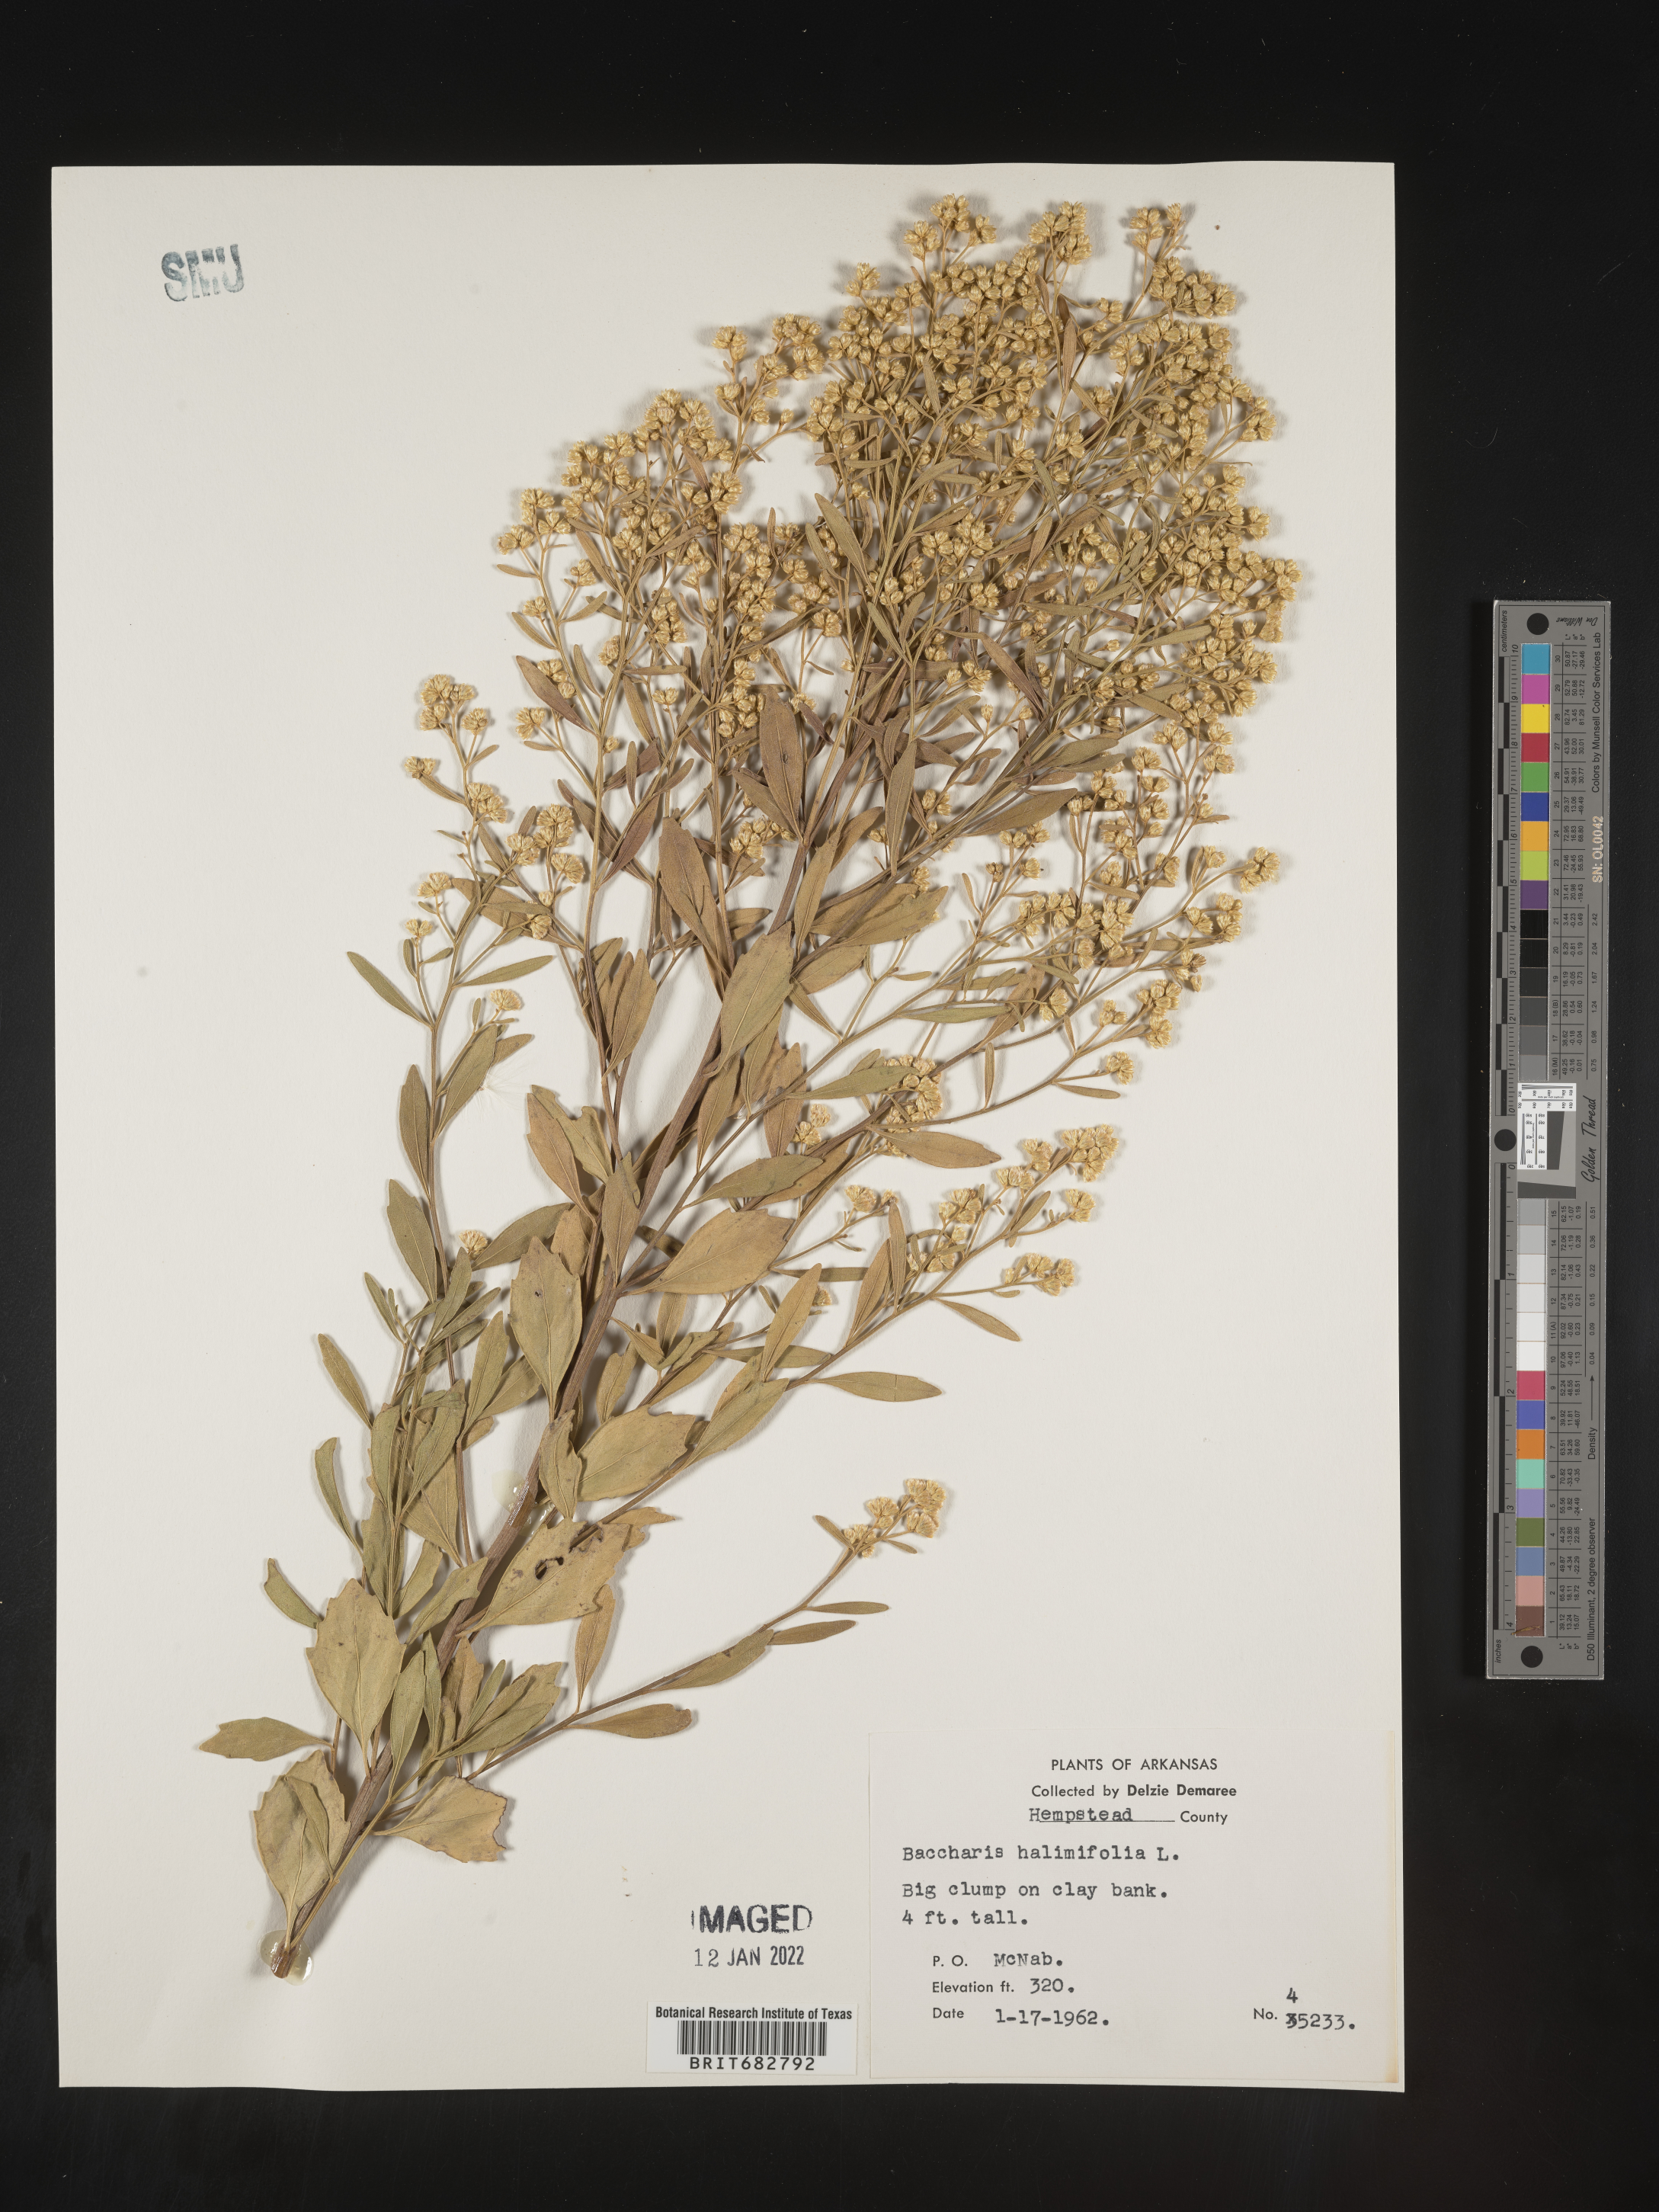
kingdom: Plantae
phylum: Tracheophyta
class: Magnoliopsida
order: Asterales
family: Asteraceae
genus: Nidorella
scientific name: Nidorella ivifolia
